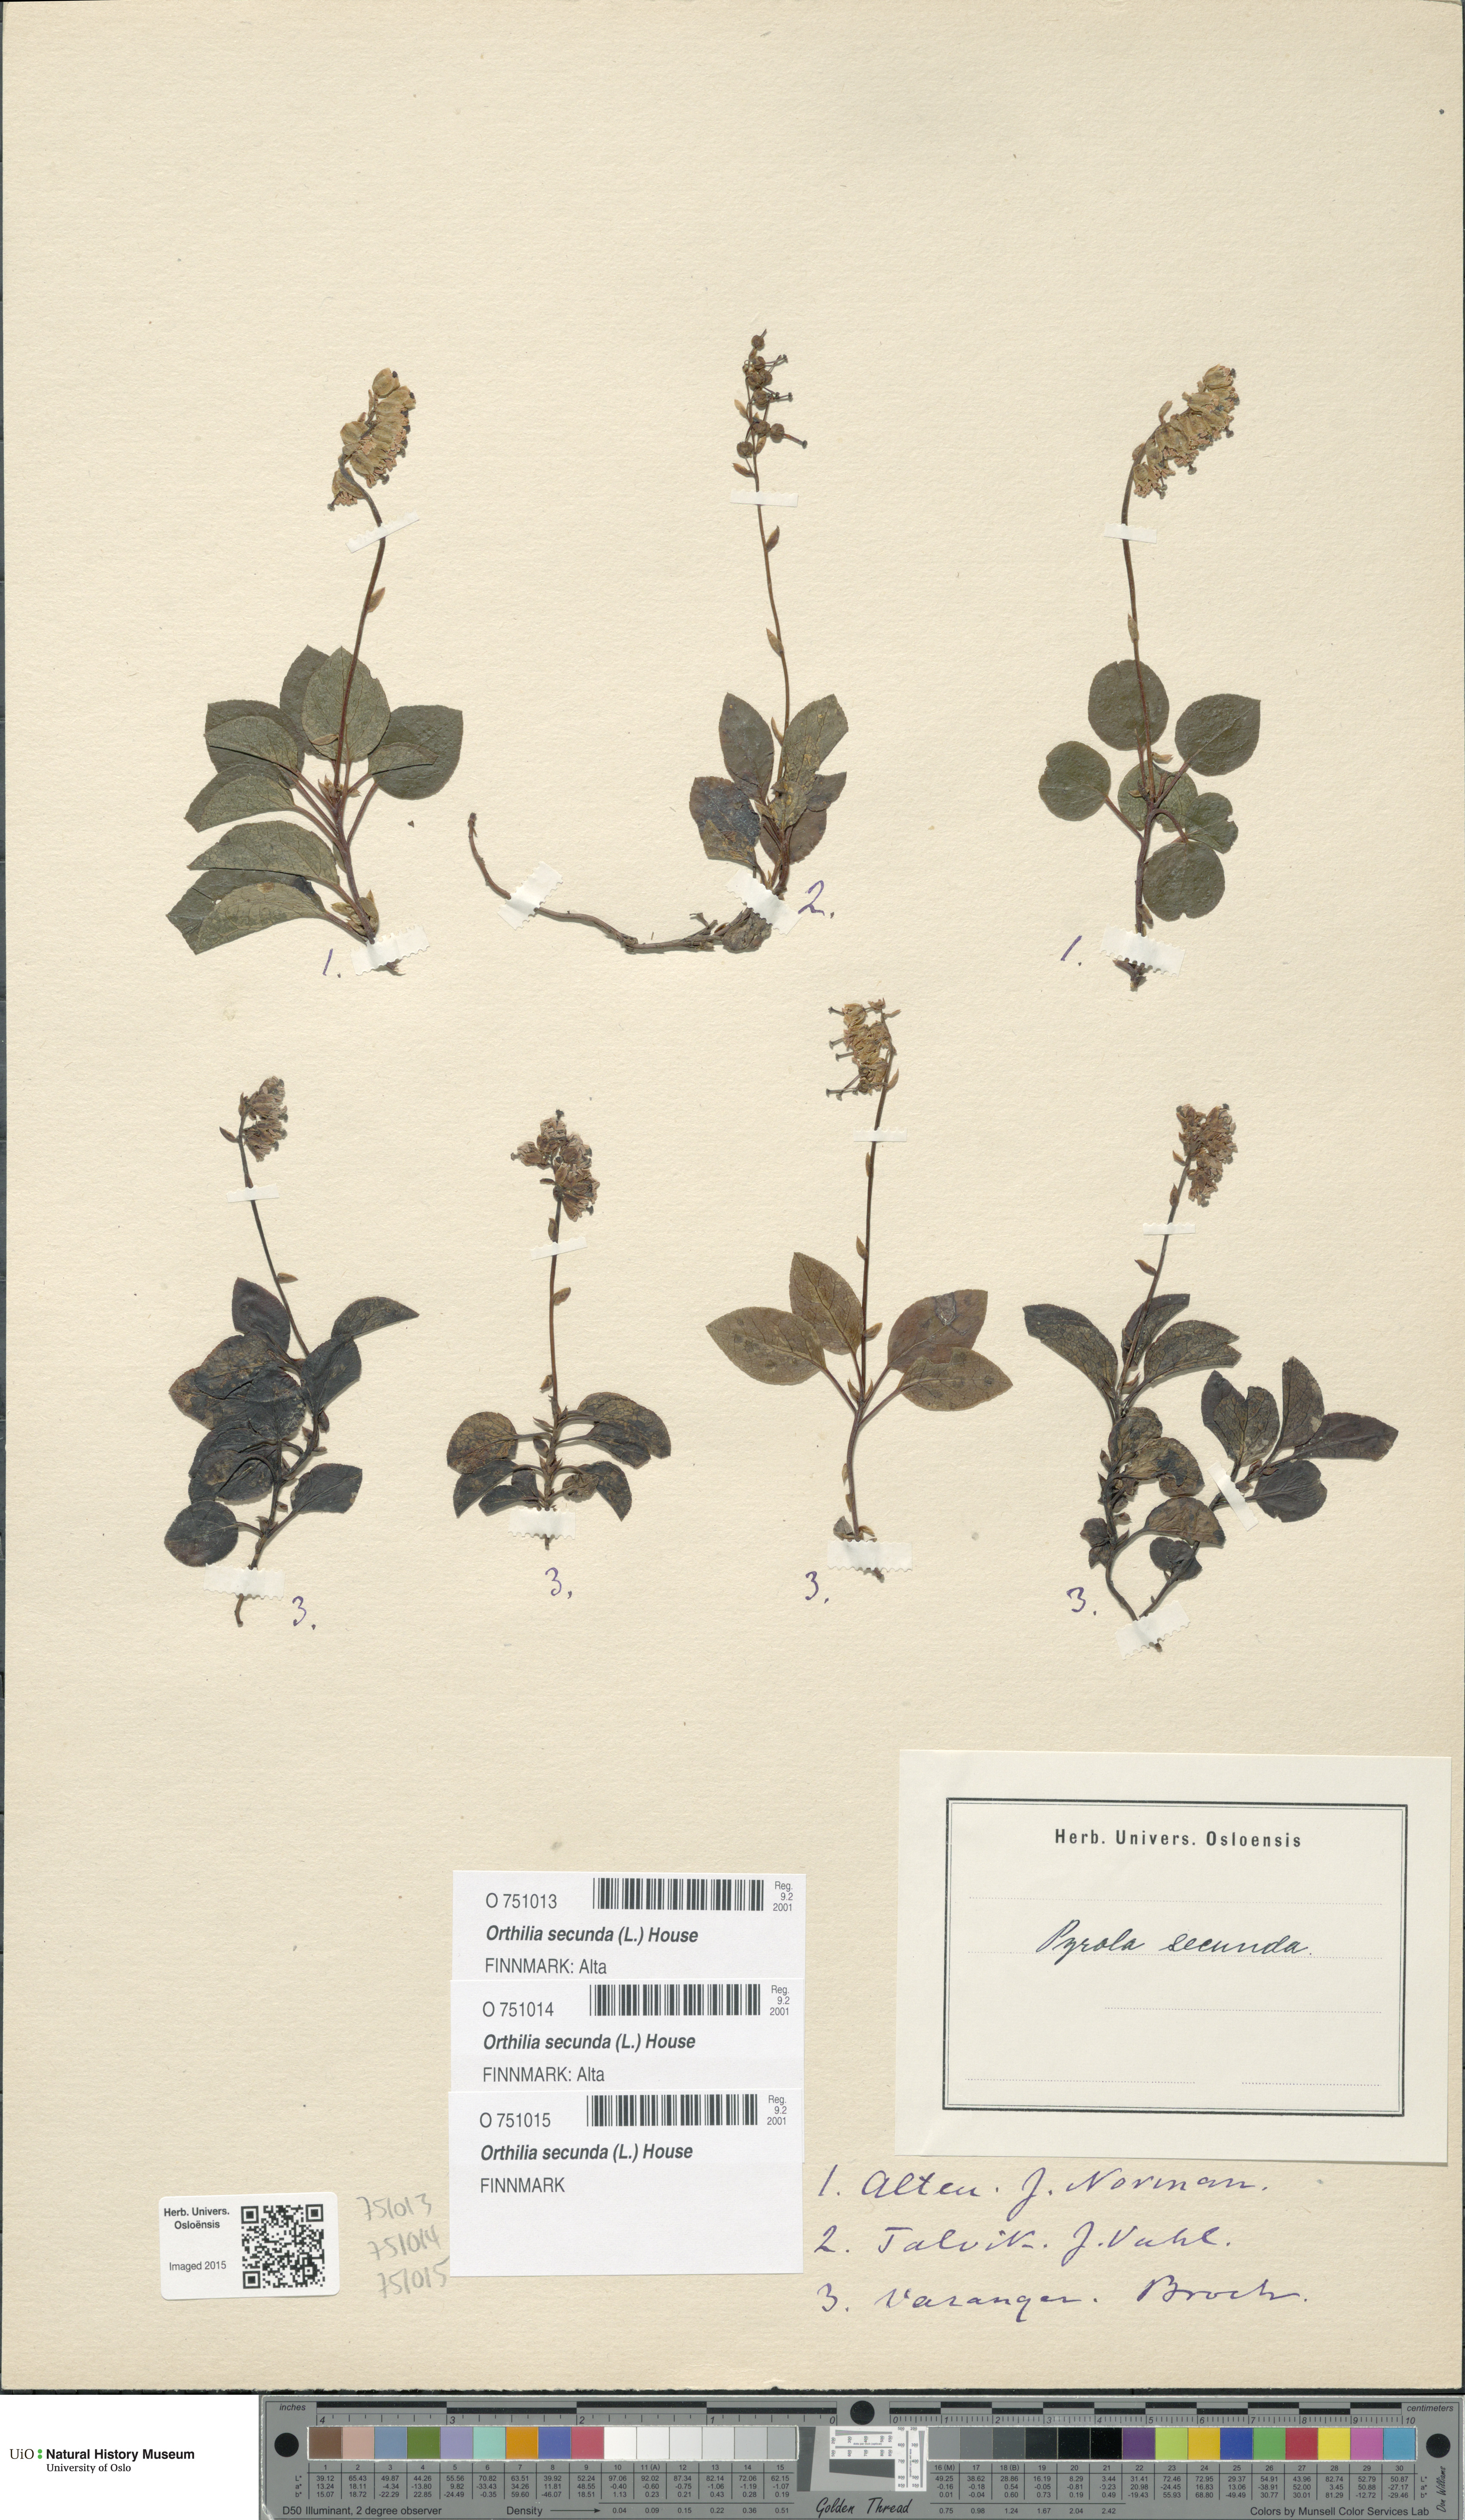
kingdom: Plantae
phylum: Tracheophyta
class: Magnoliopsida
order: Ericales
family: Ericaceae
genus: Orthilia
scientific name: Orthilia secunda
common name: One-sided orthilia
